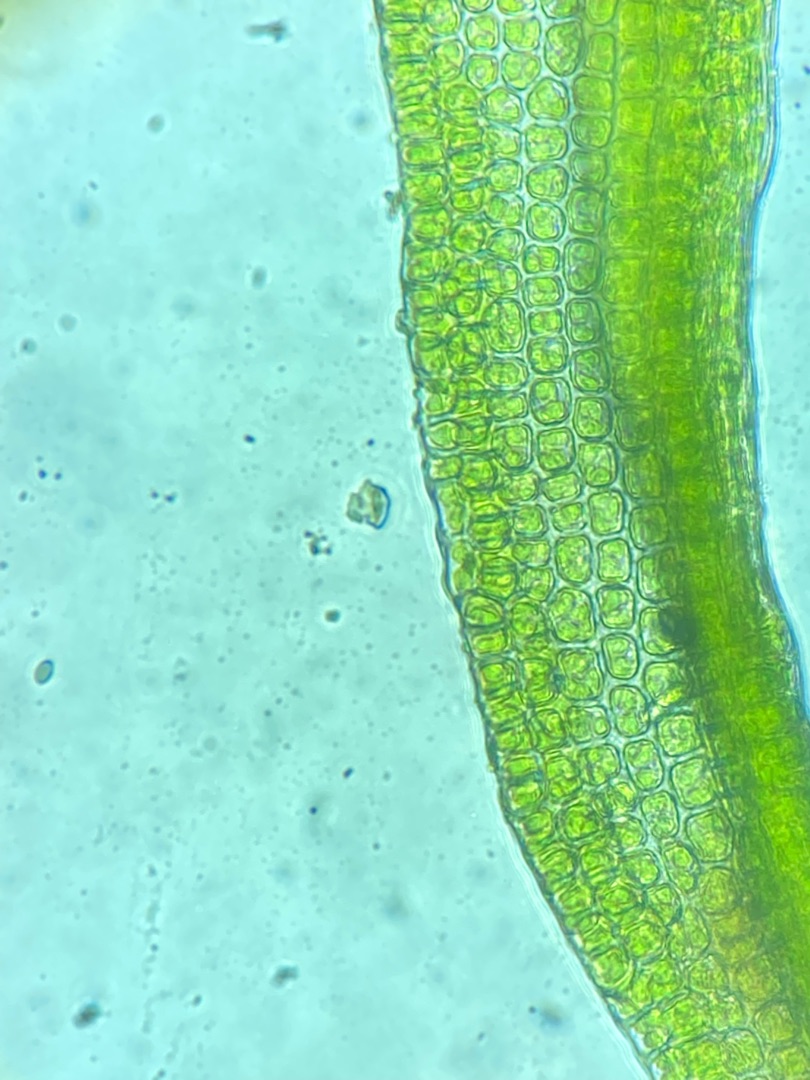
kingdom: Plantae
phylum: Bryophyta
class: Bryopsida
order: Dicranales
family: Rhabdoweisiaceae
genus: Dicranoweisia
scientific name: Dicranoweisia cirrata
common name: Almindelig krøltuemos
